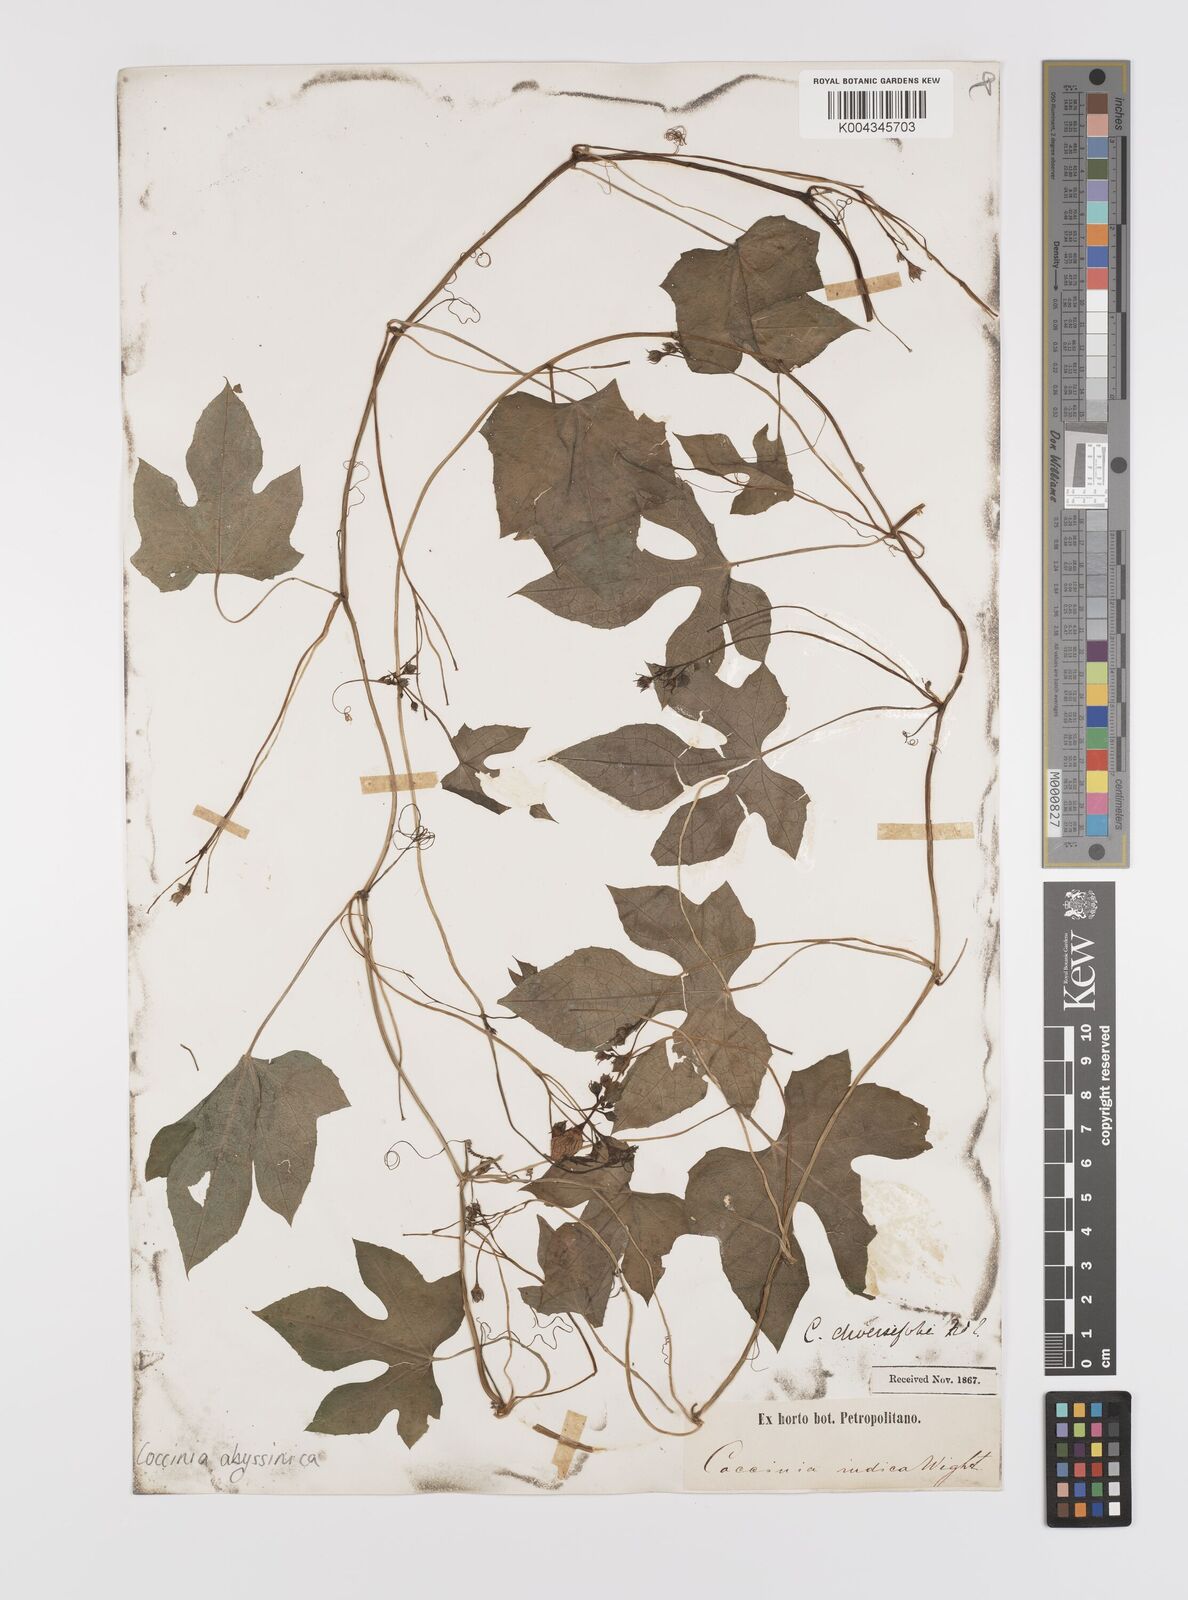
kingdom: Plantae
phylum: Tracheophyta
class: Magnoliopsida
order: Cucurbitales
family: Cucurbitaceae
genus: Coccinia
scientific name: Coccinia abyssinica
